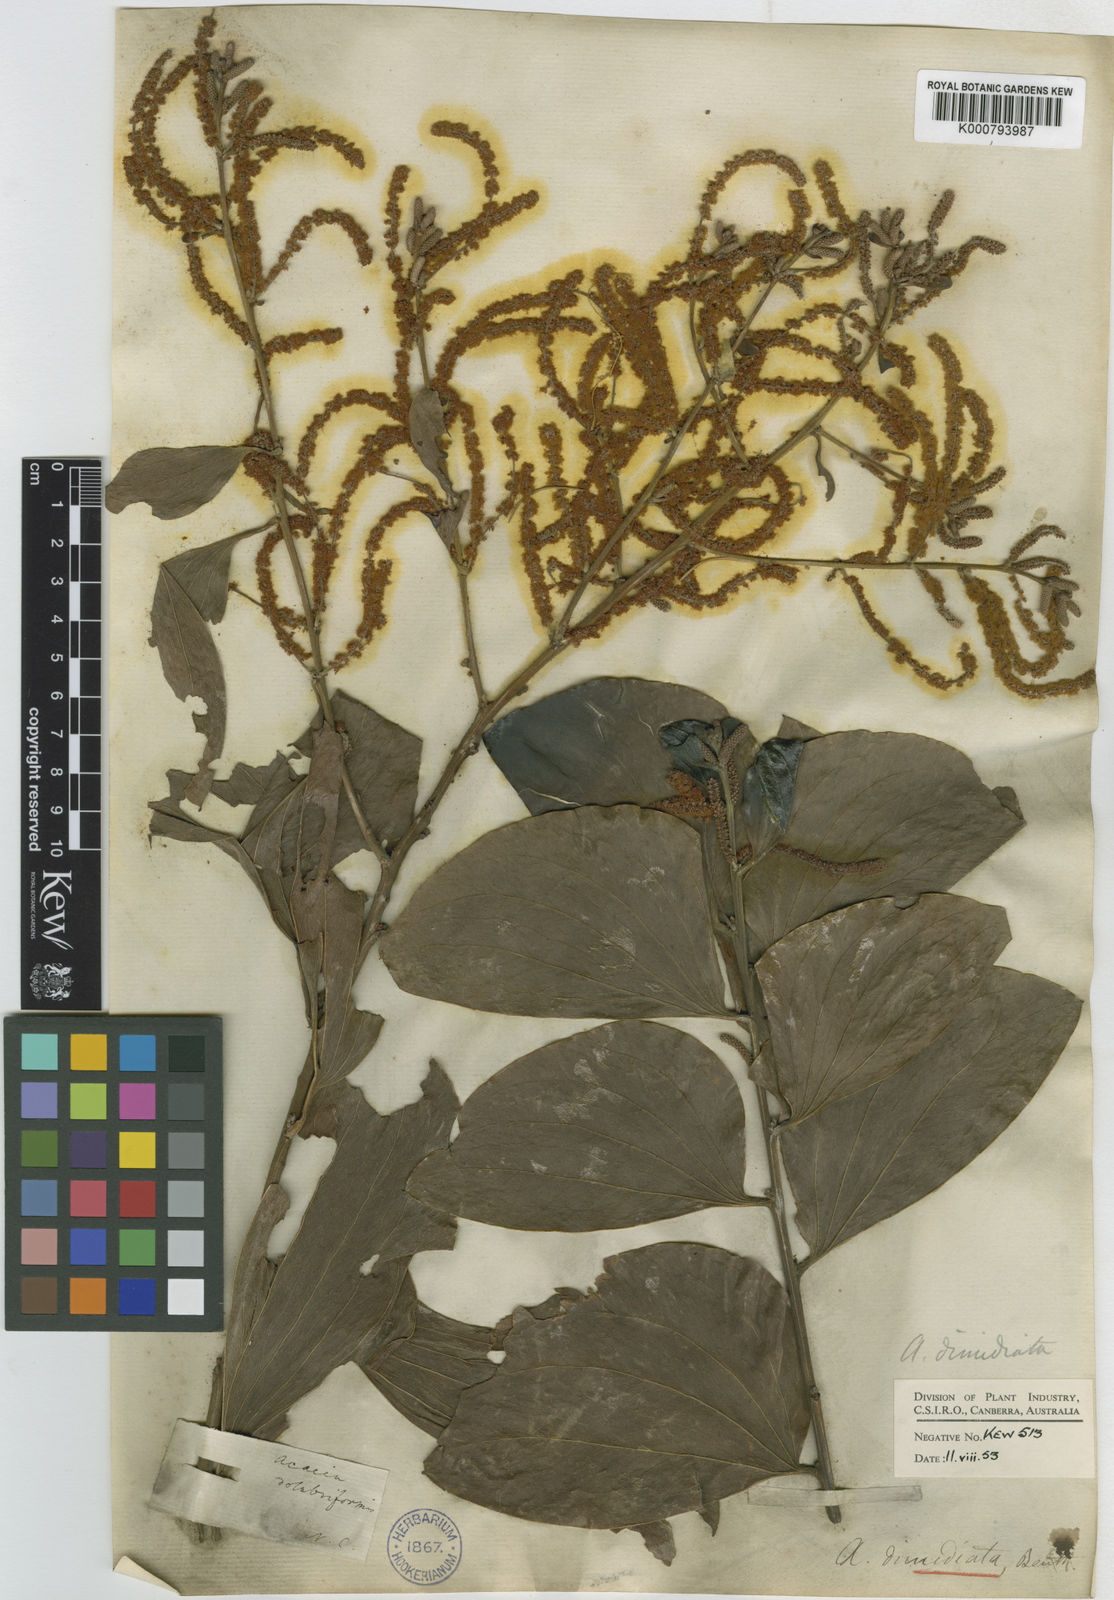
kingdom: Plantae
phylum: Tracheophyta
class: Magnoliopsida
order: Fabales
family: Fabaceae
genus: Acacia
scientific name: Acacia dimidiata
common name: Swamp wattle
